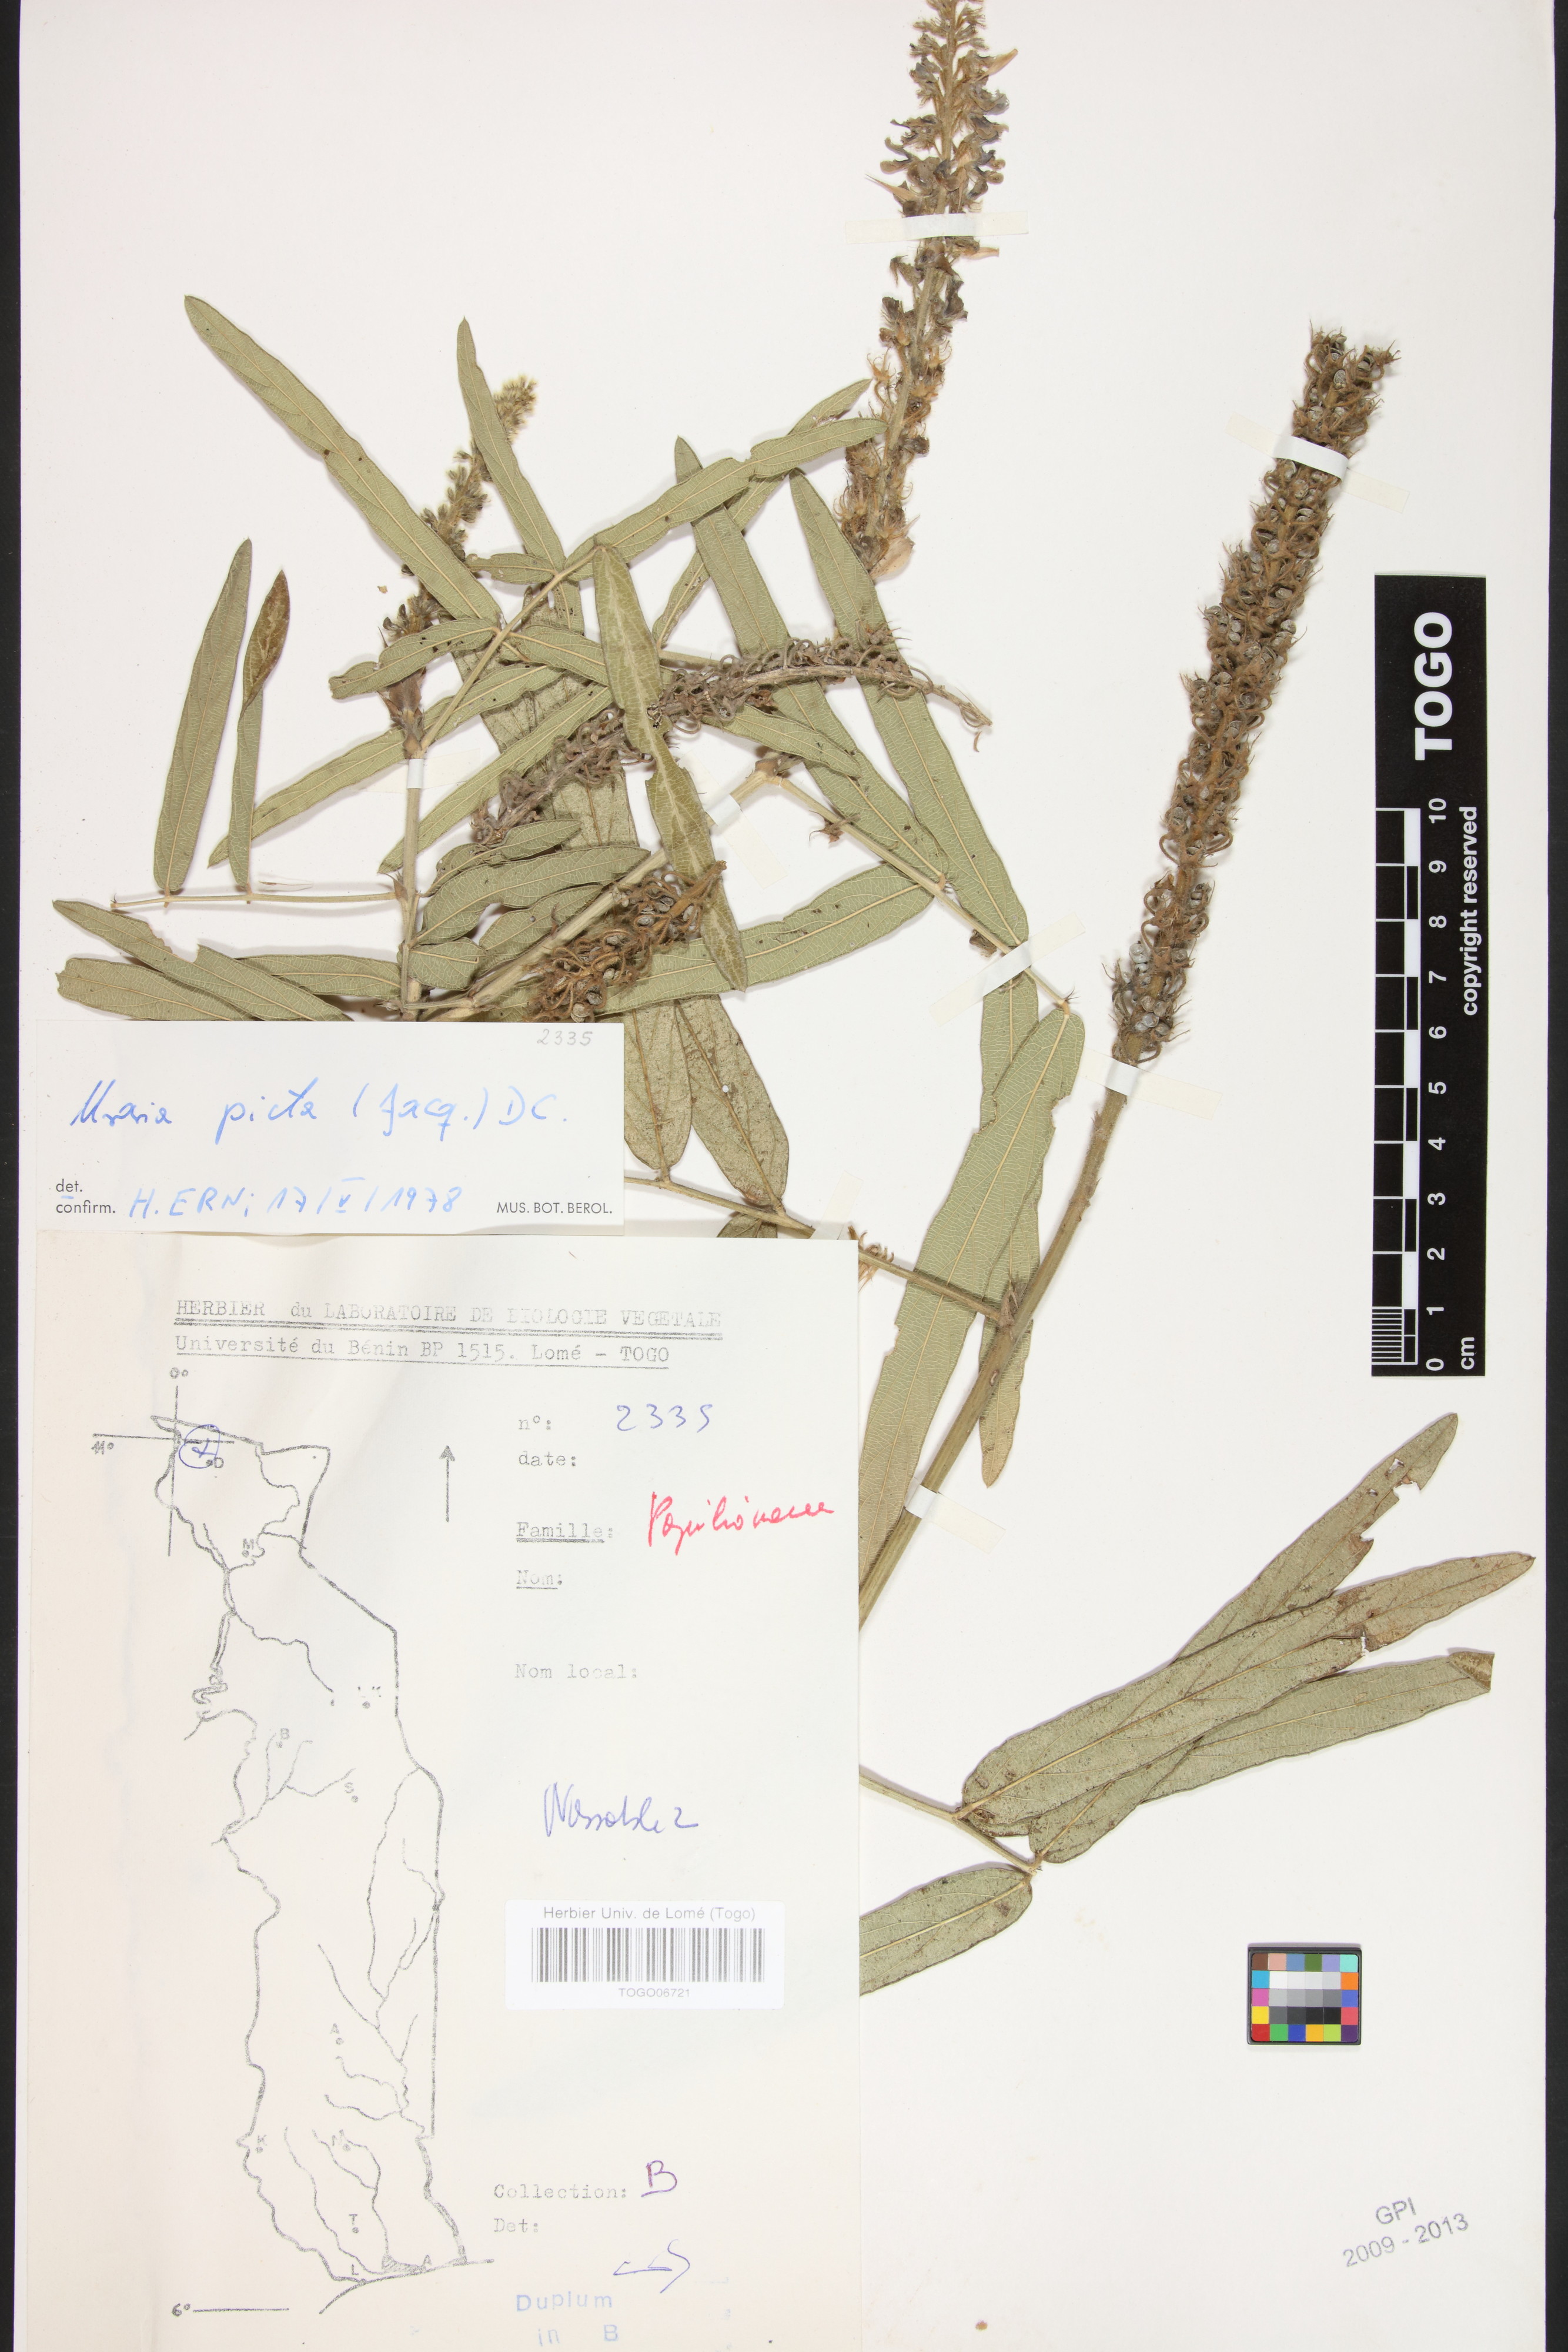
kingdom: Plantae
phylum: Tracheophyta
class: Magnoliopsida
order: Fabales
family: Fabaceae
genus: Uraria
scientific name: Uraria picta
